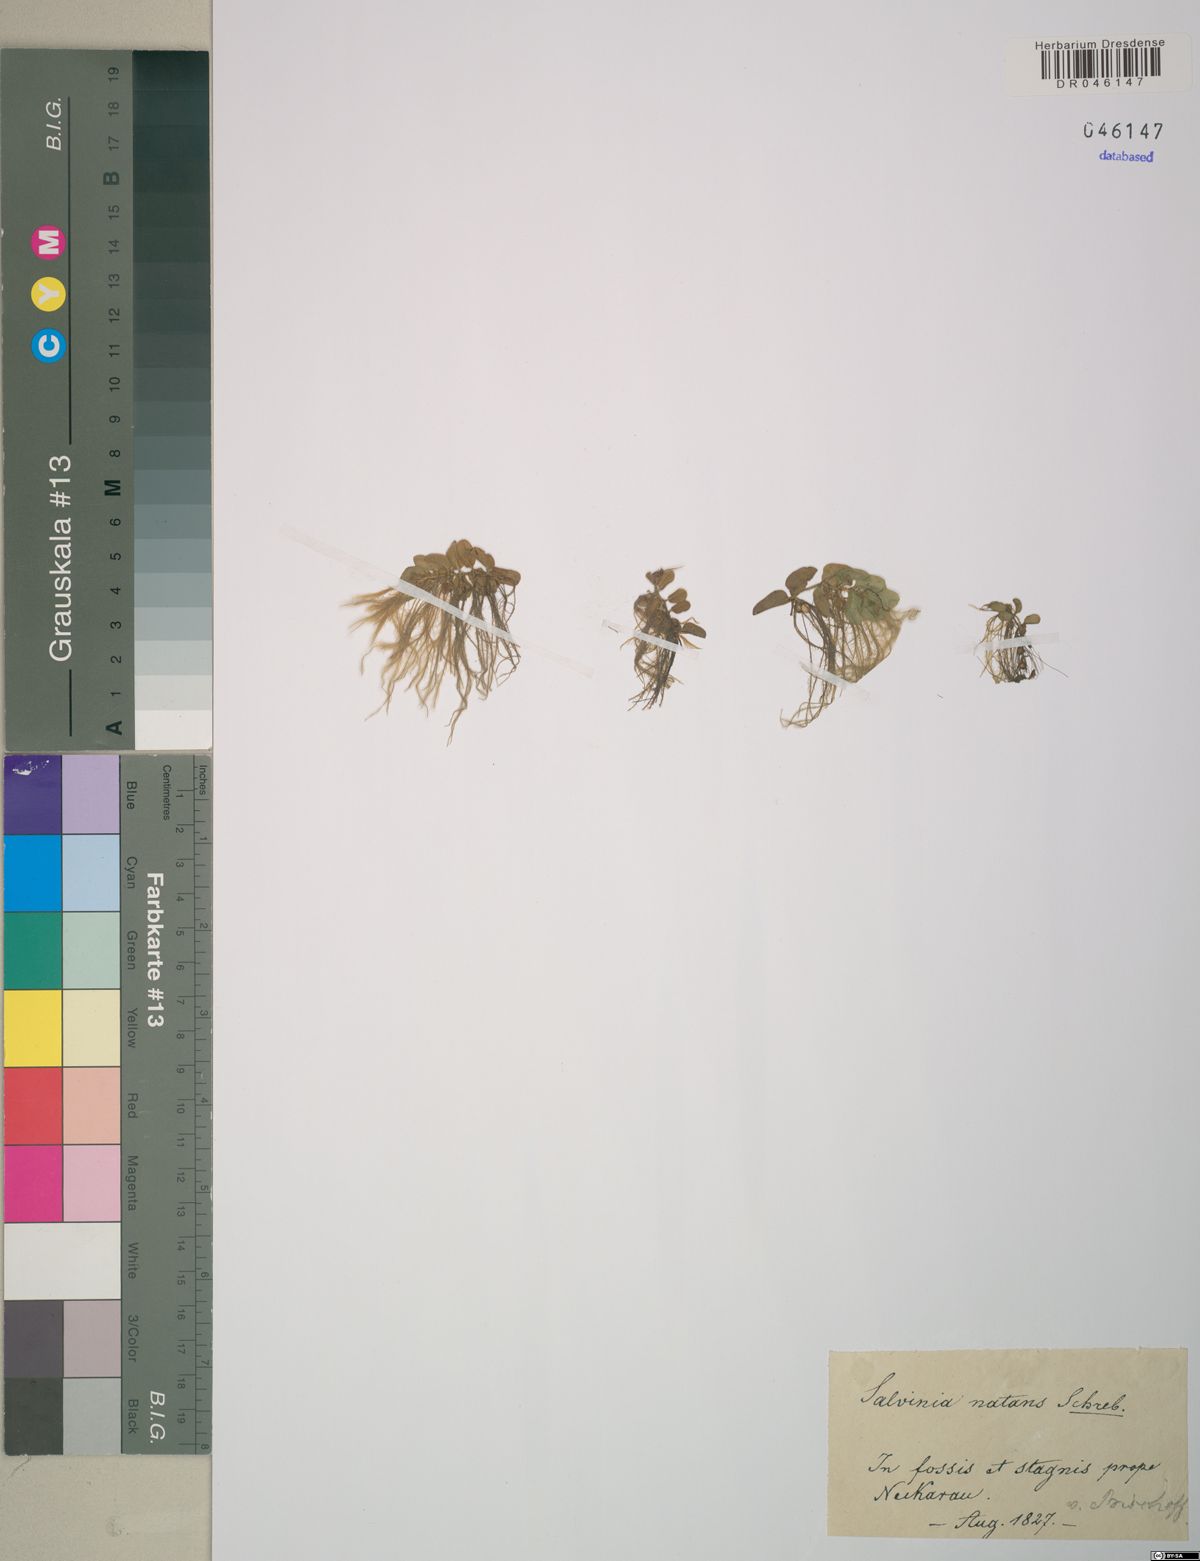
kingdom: Plantae
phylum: Tracheophyta
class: Polypodiopsida
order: Salviniales
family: Salviniaceae
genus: Salvinia
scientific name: Salvinia natans
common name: Floating fern
